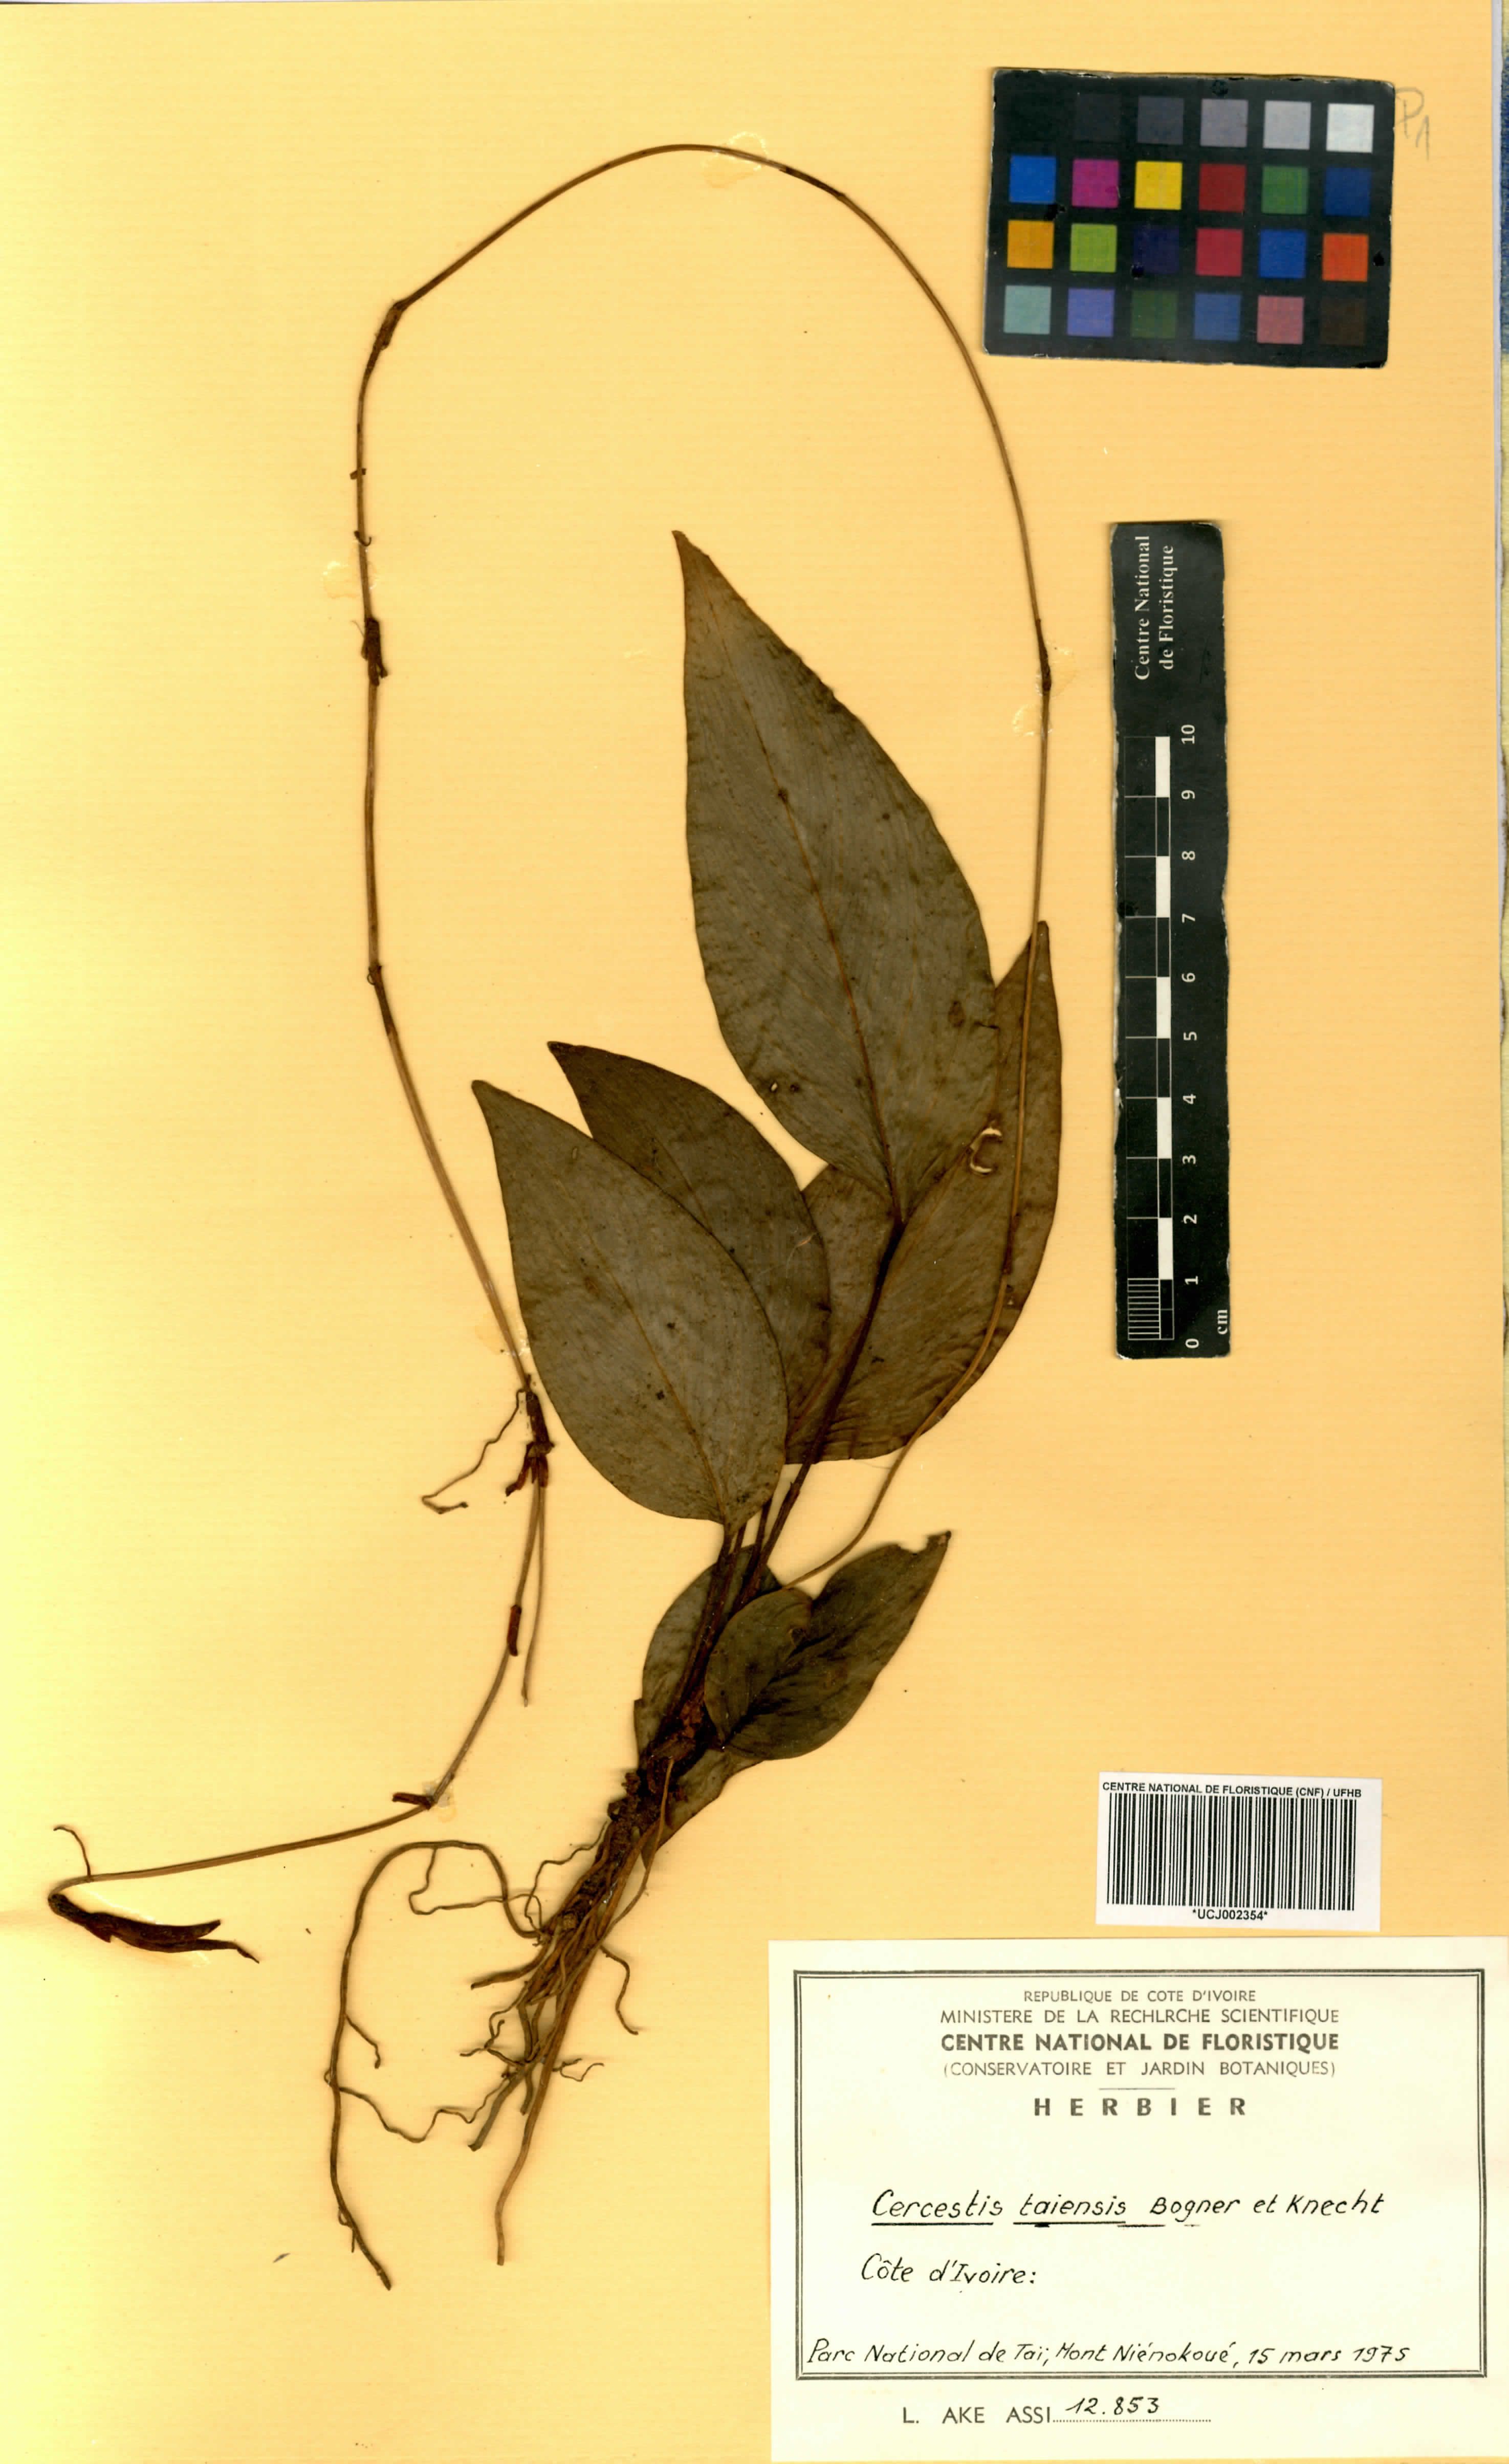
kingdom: Plantae
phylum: Tracheophyta
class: Liliopsida
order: Alismatales
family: Araceae
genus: Cercestis
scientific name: Cercestis taiensis
